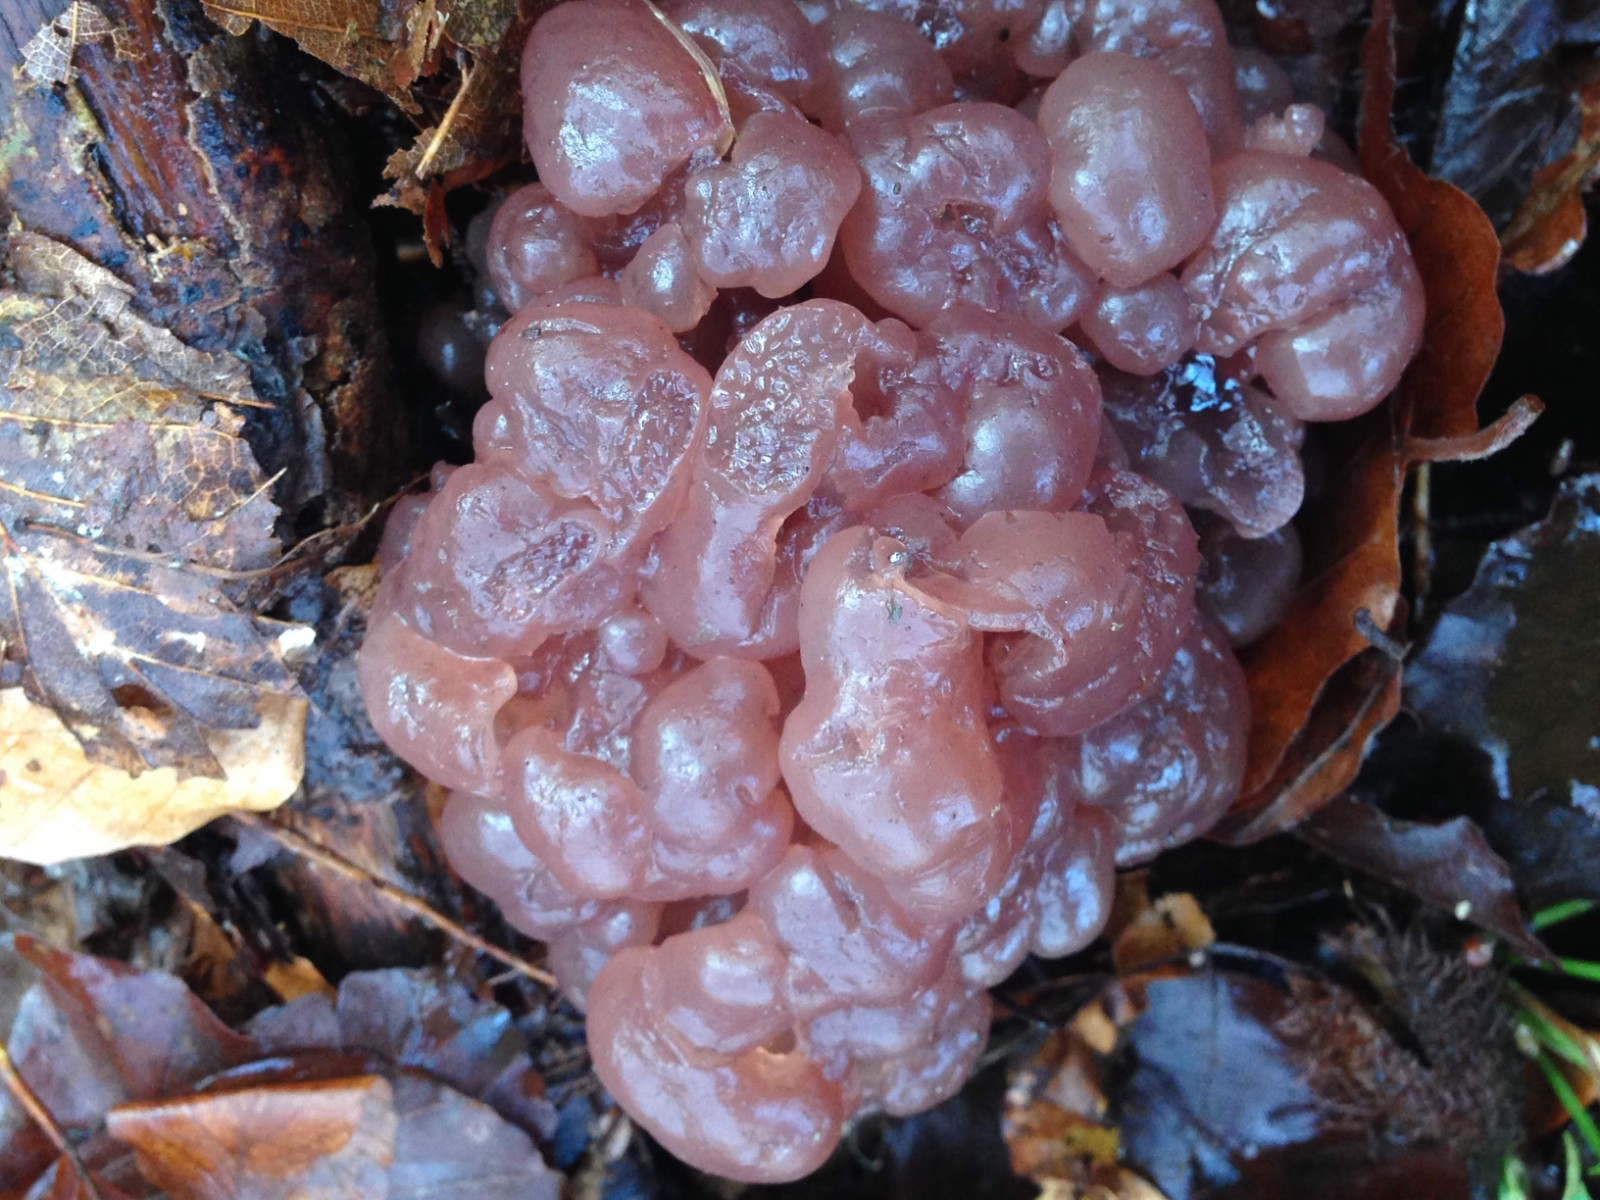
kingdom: Fungi
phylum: Ascomycota
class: Leotiomycetes
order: Helotiales
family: Gelatinodiscaceae
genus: Ascotremella
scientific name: Ascotremella faginea
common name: hjerne-bævreskive
